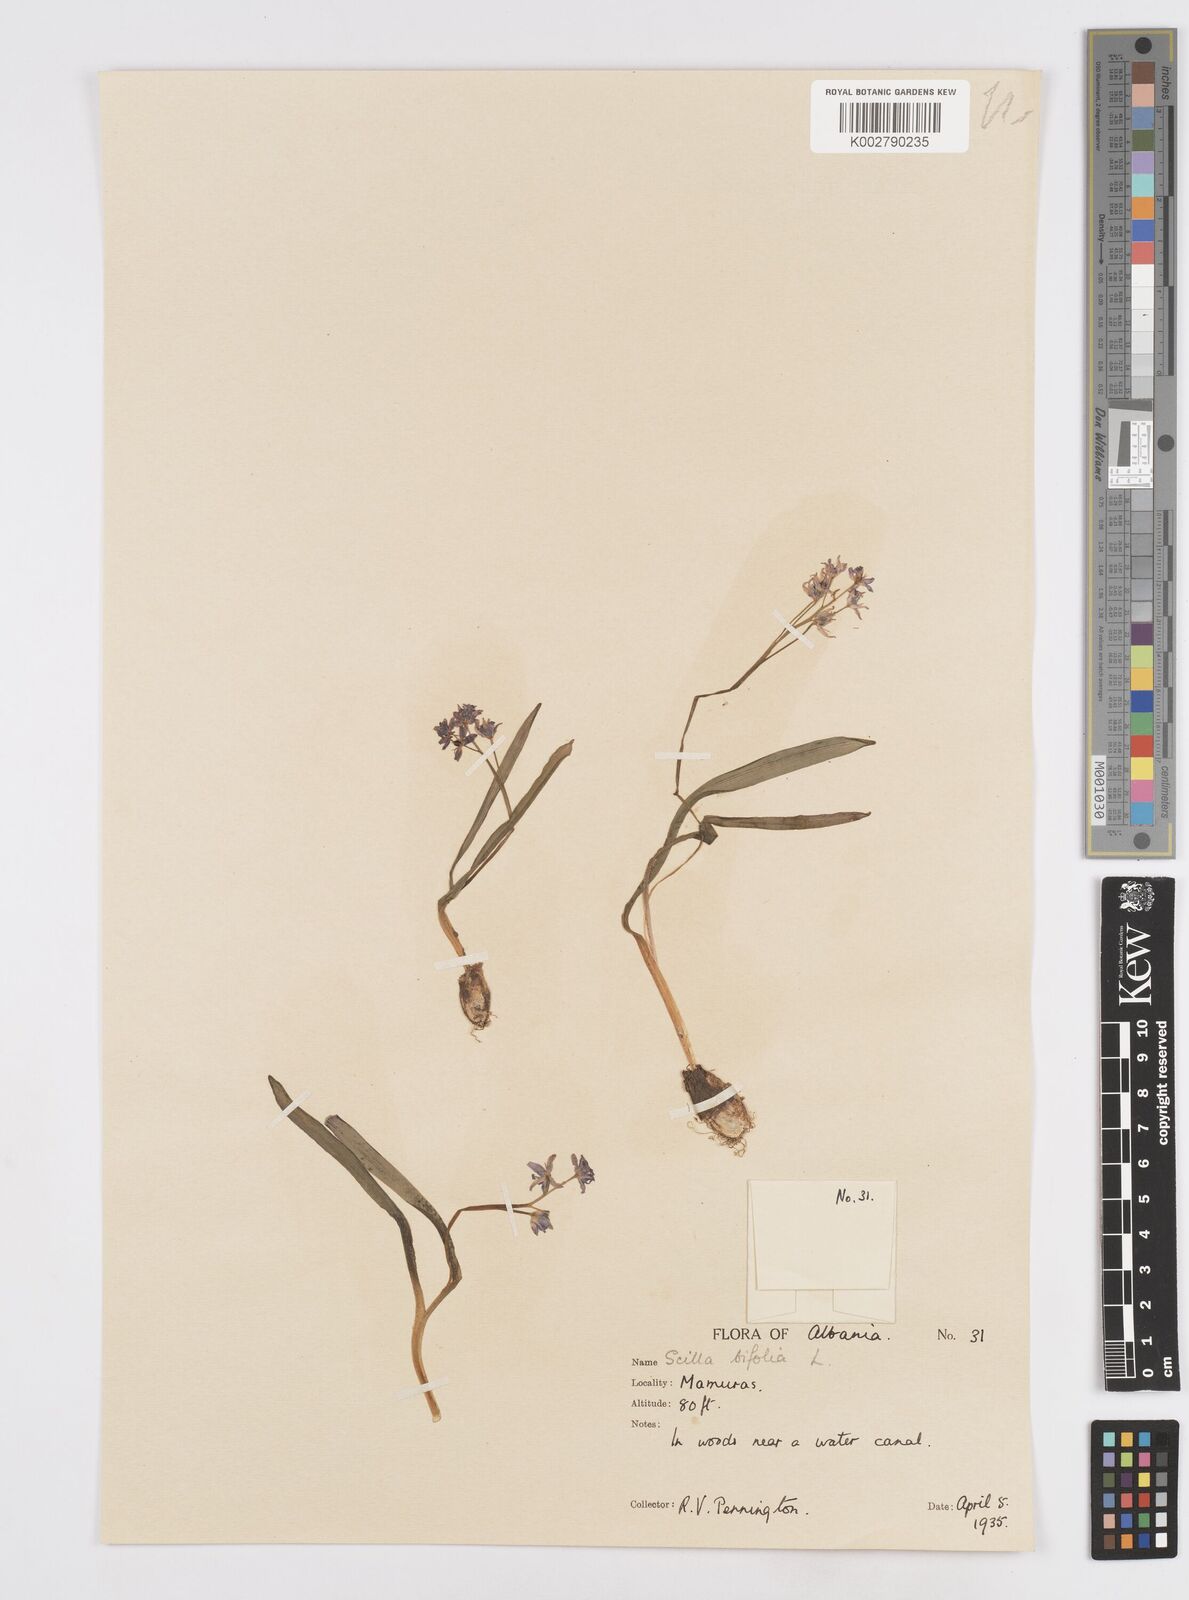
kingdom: Plantae
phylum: Tracheophyta
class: Liliopsida
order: Asparagales
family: Asparagaceae
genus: Scilla
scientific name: Scilla bifolia
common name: Alpine squill
